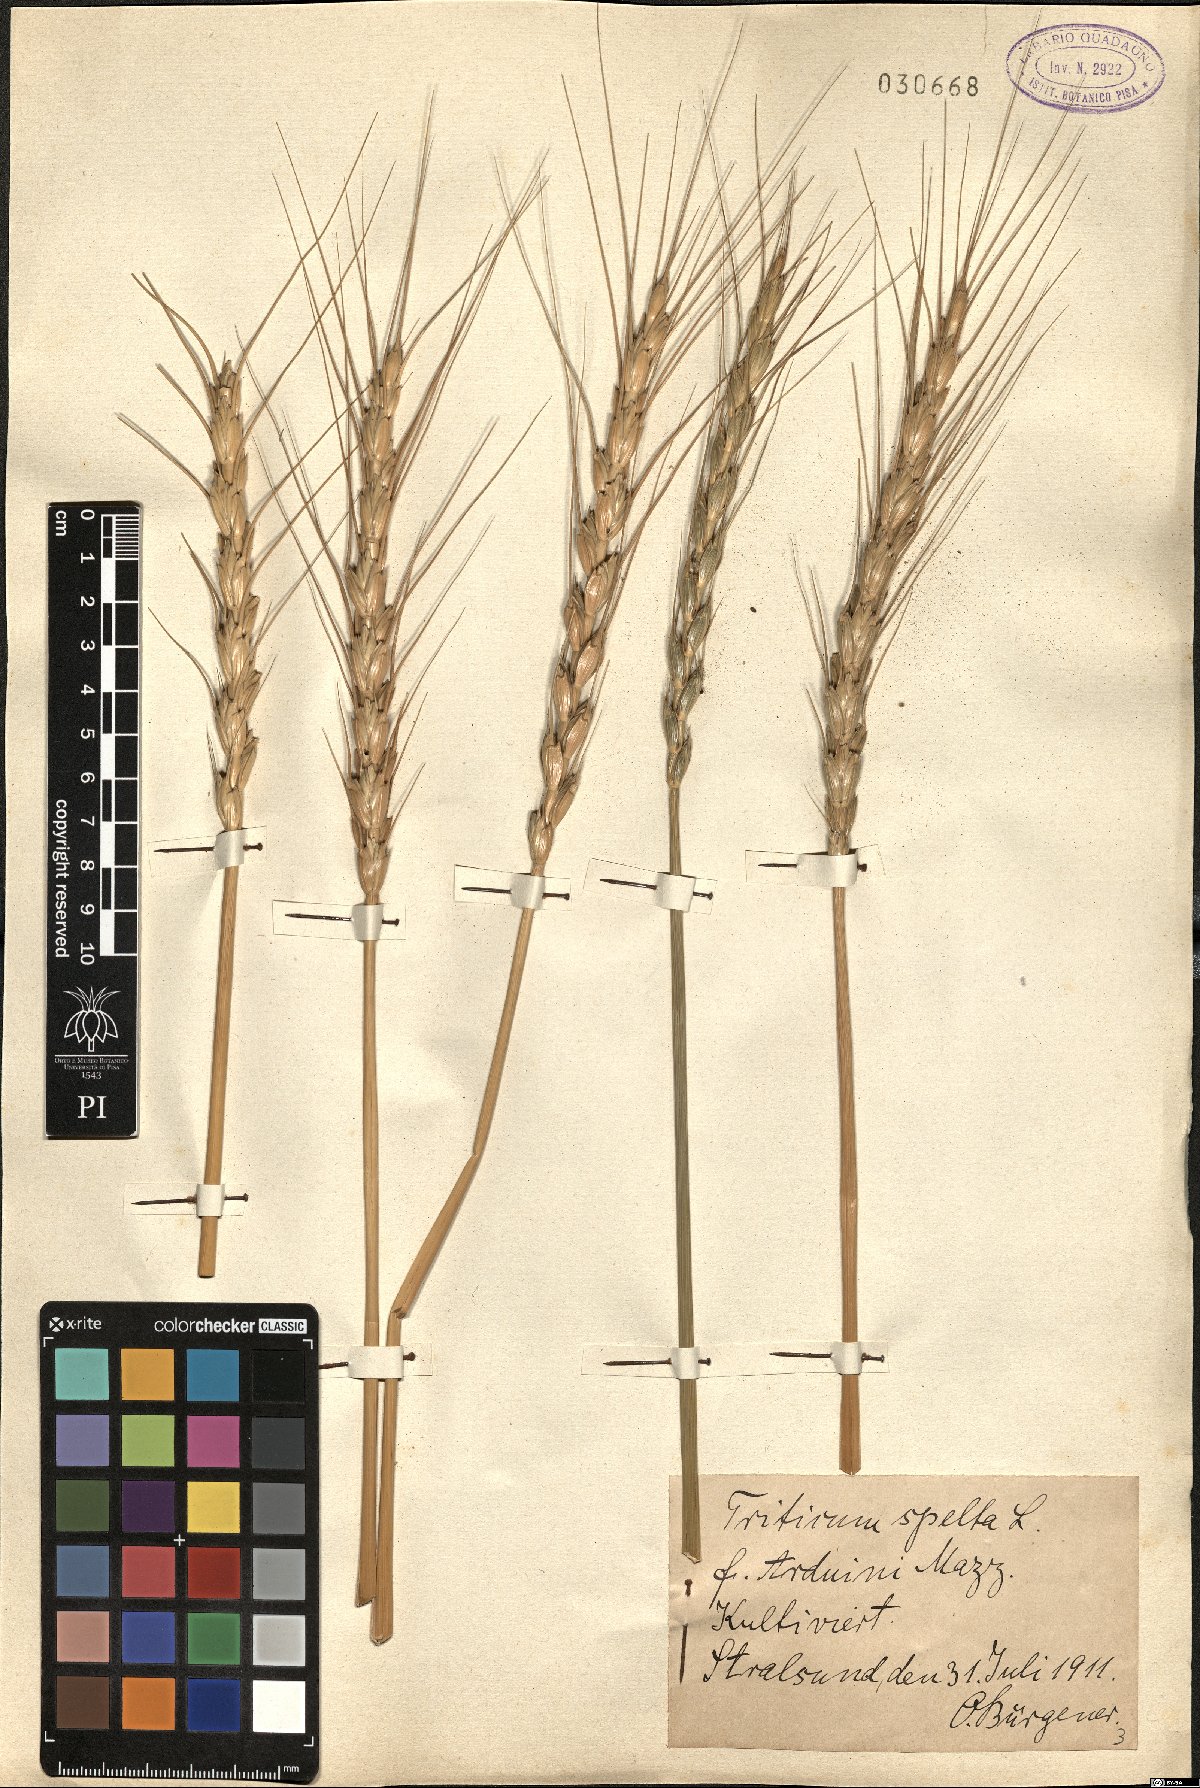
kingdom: Plantae
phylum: Tracheophyta
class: Liliopsida
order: Poales
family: Poaceae
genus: Triticum
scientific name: Triticum aestivum
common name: Common wheat
